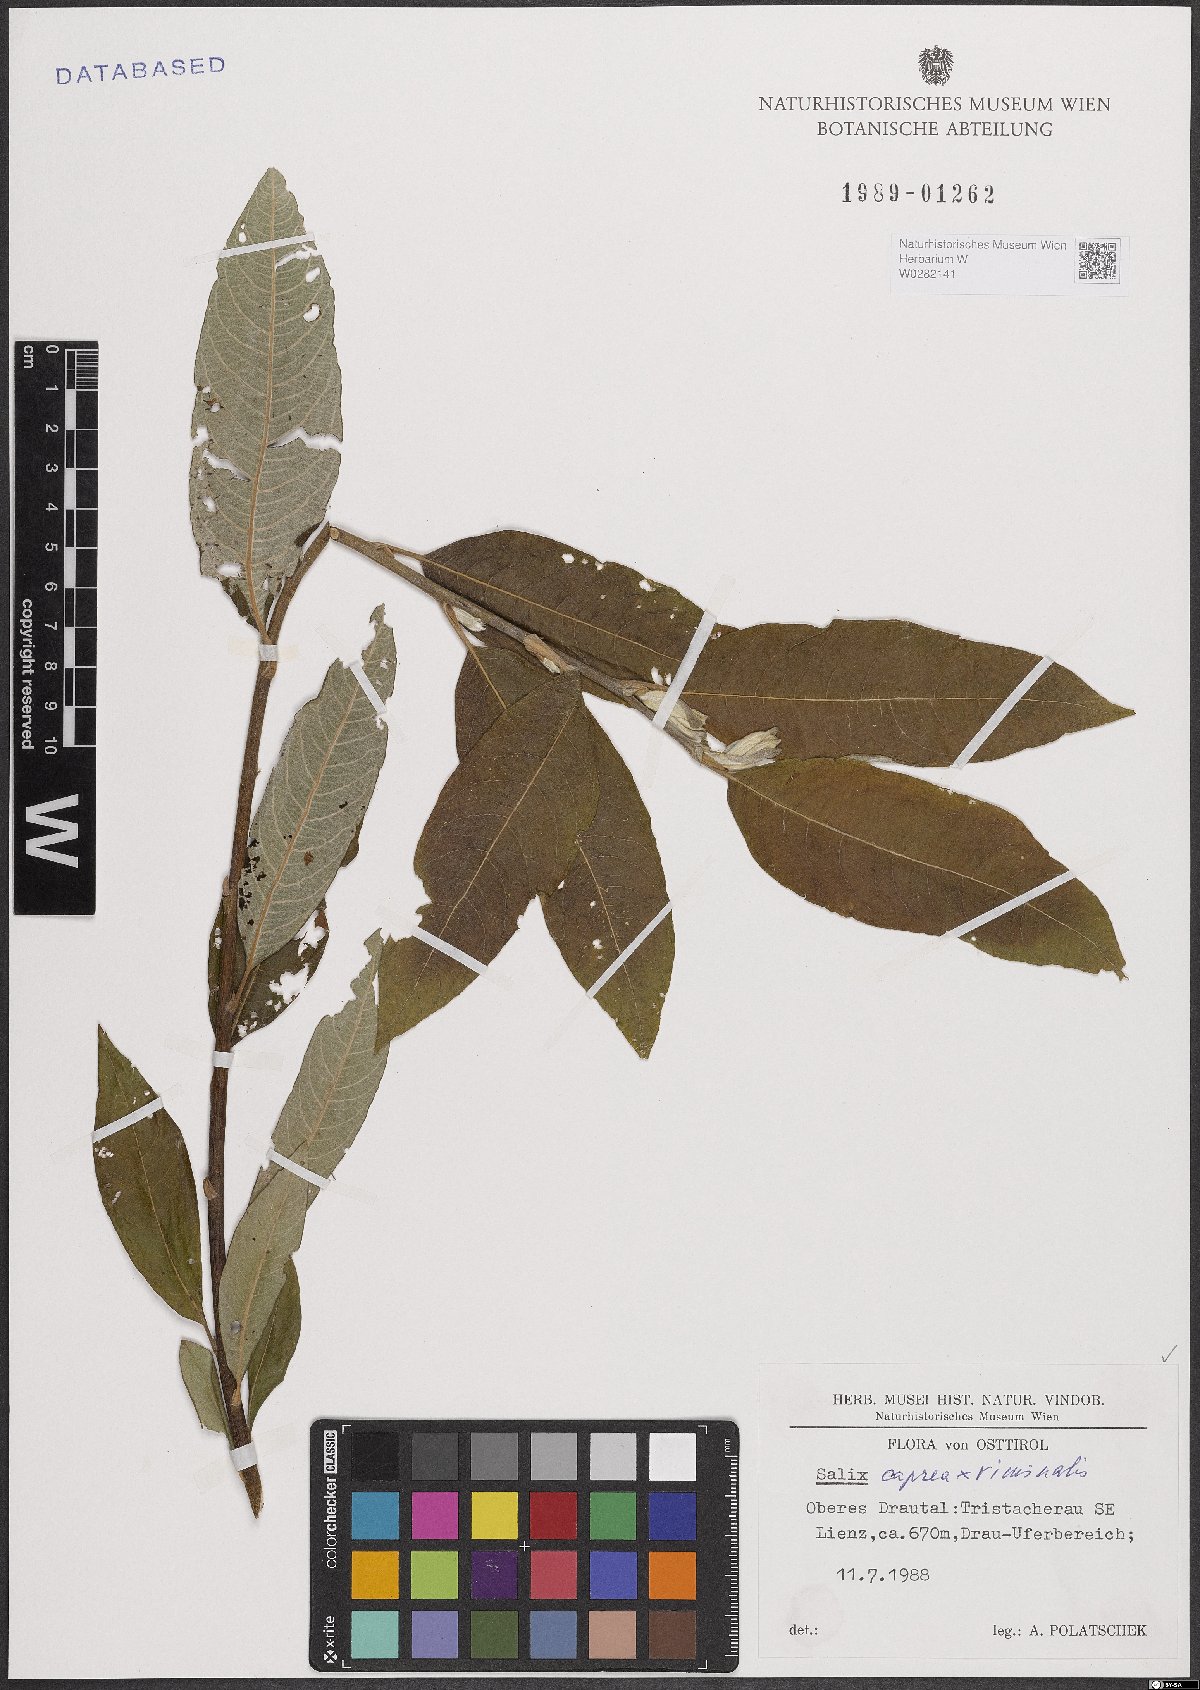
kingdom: Plantae
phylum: Tracheophyta
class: Magnoliopsida
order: Malpighiales
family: Salicaceae
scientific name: Salicaceae
